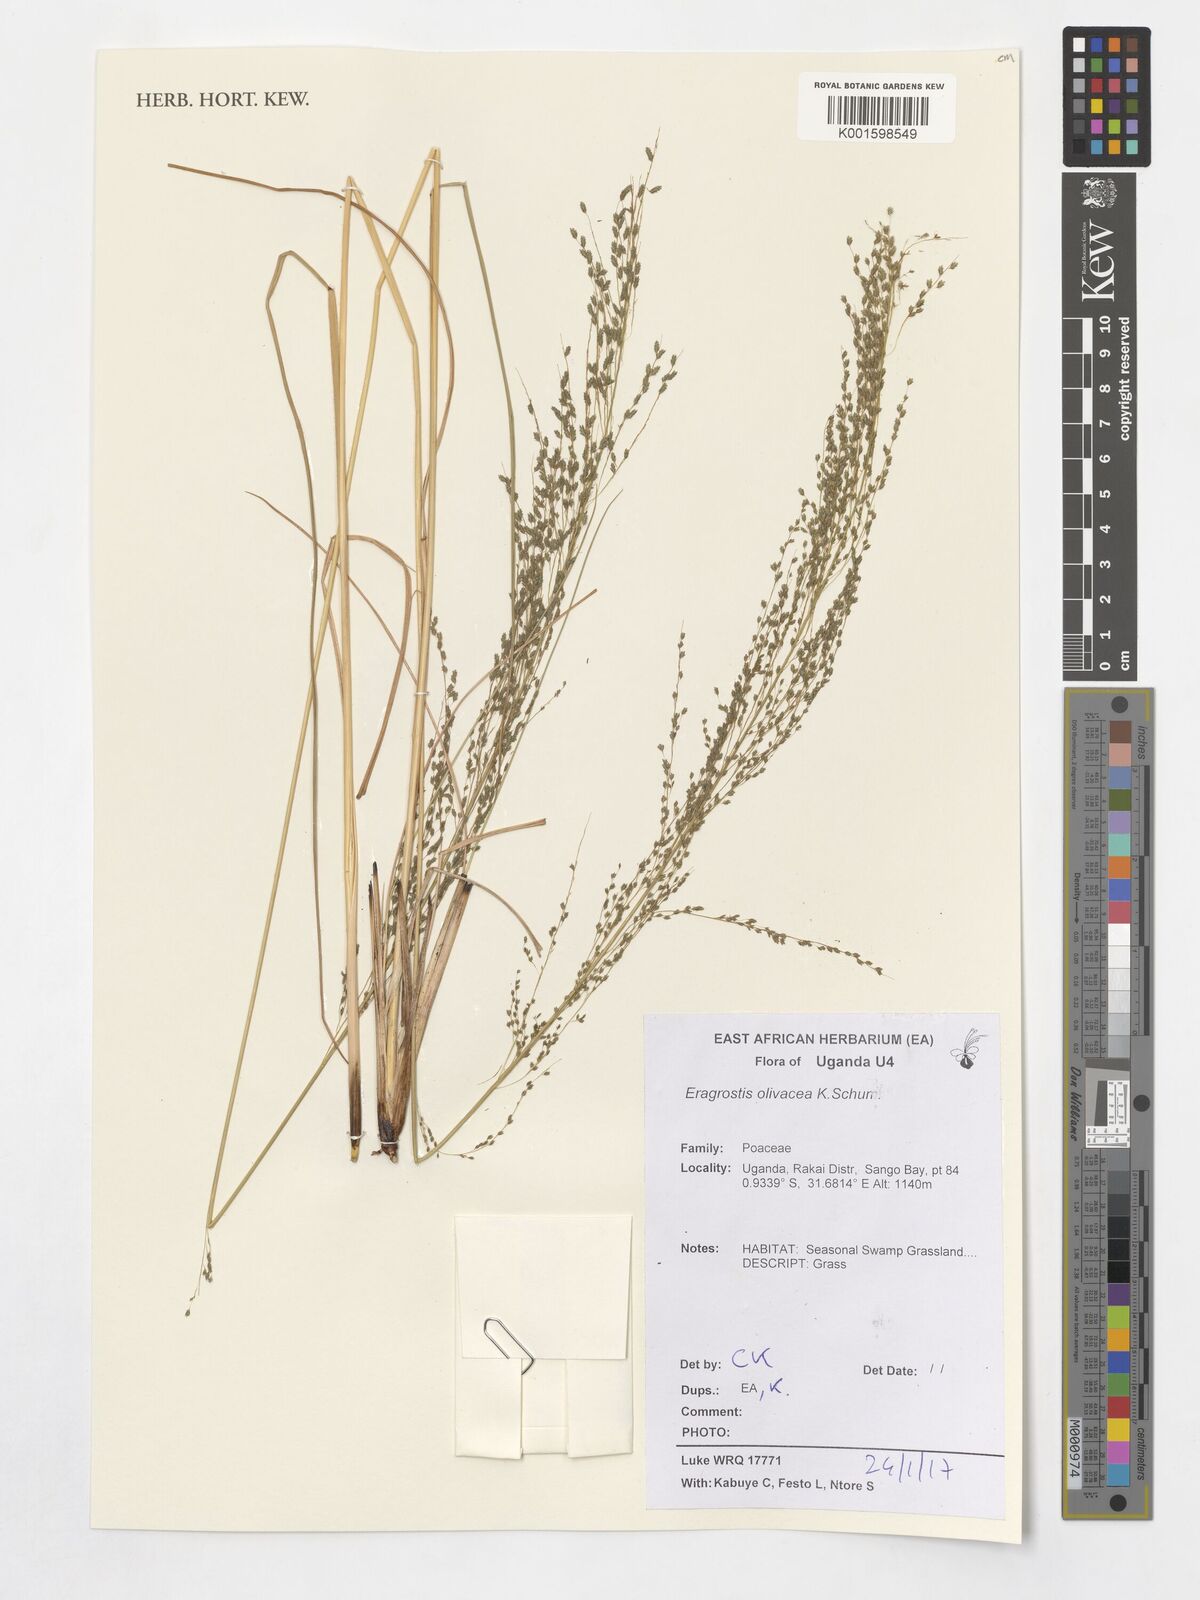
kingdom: Plantae
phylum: Tracheophyta
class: Liliopsida
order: Poales
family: Poaceae
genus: Eragrostis
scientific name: Eragrostis olivacea
